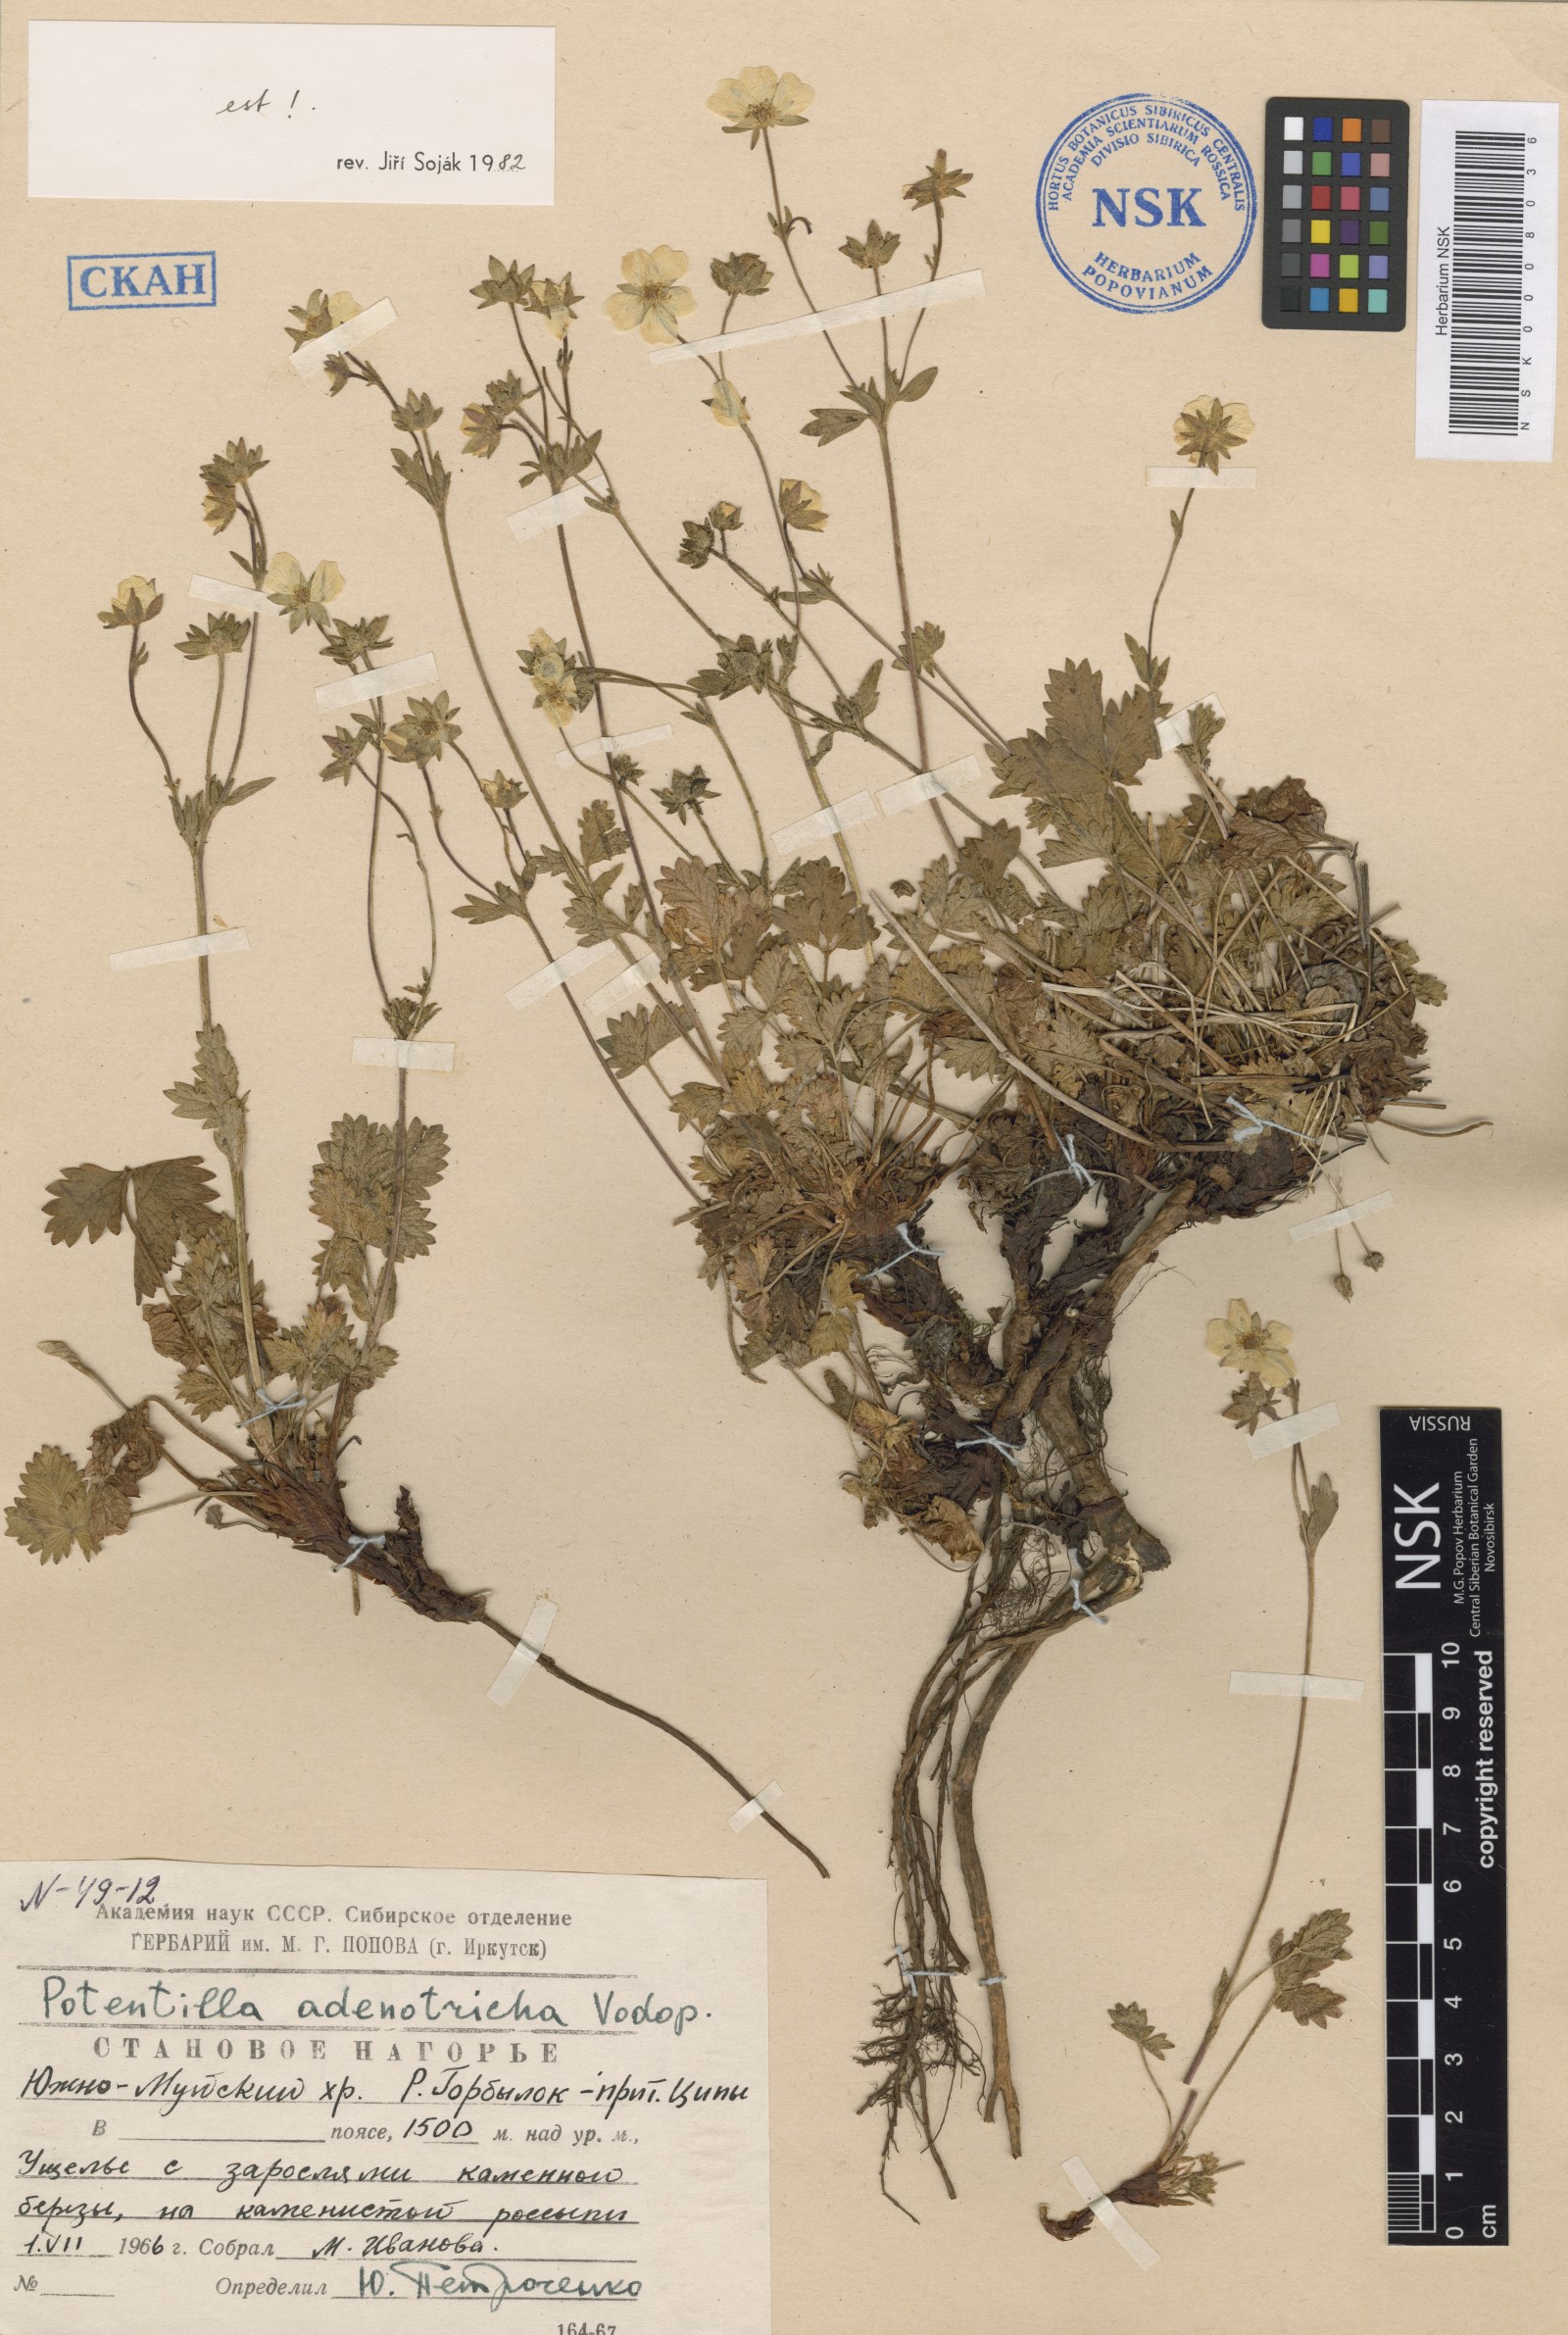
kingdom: Plantae
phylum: Tracheophyta
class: Magnoliopsida
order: Rosales
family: Rosaceae
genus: Potentilla
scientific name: Potentilla adenotricha
